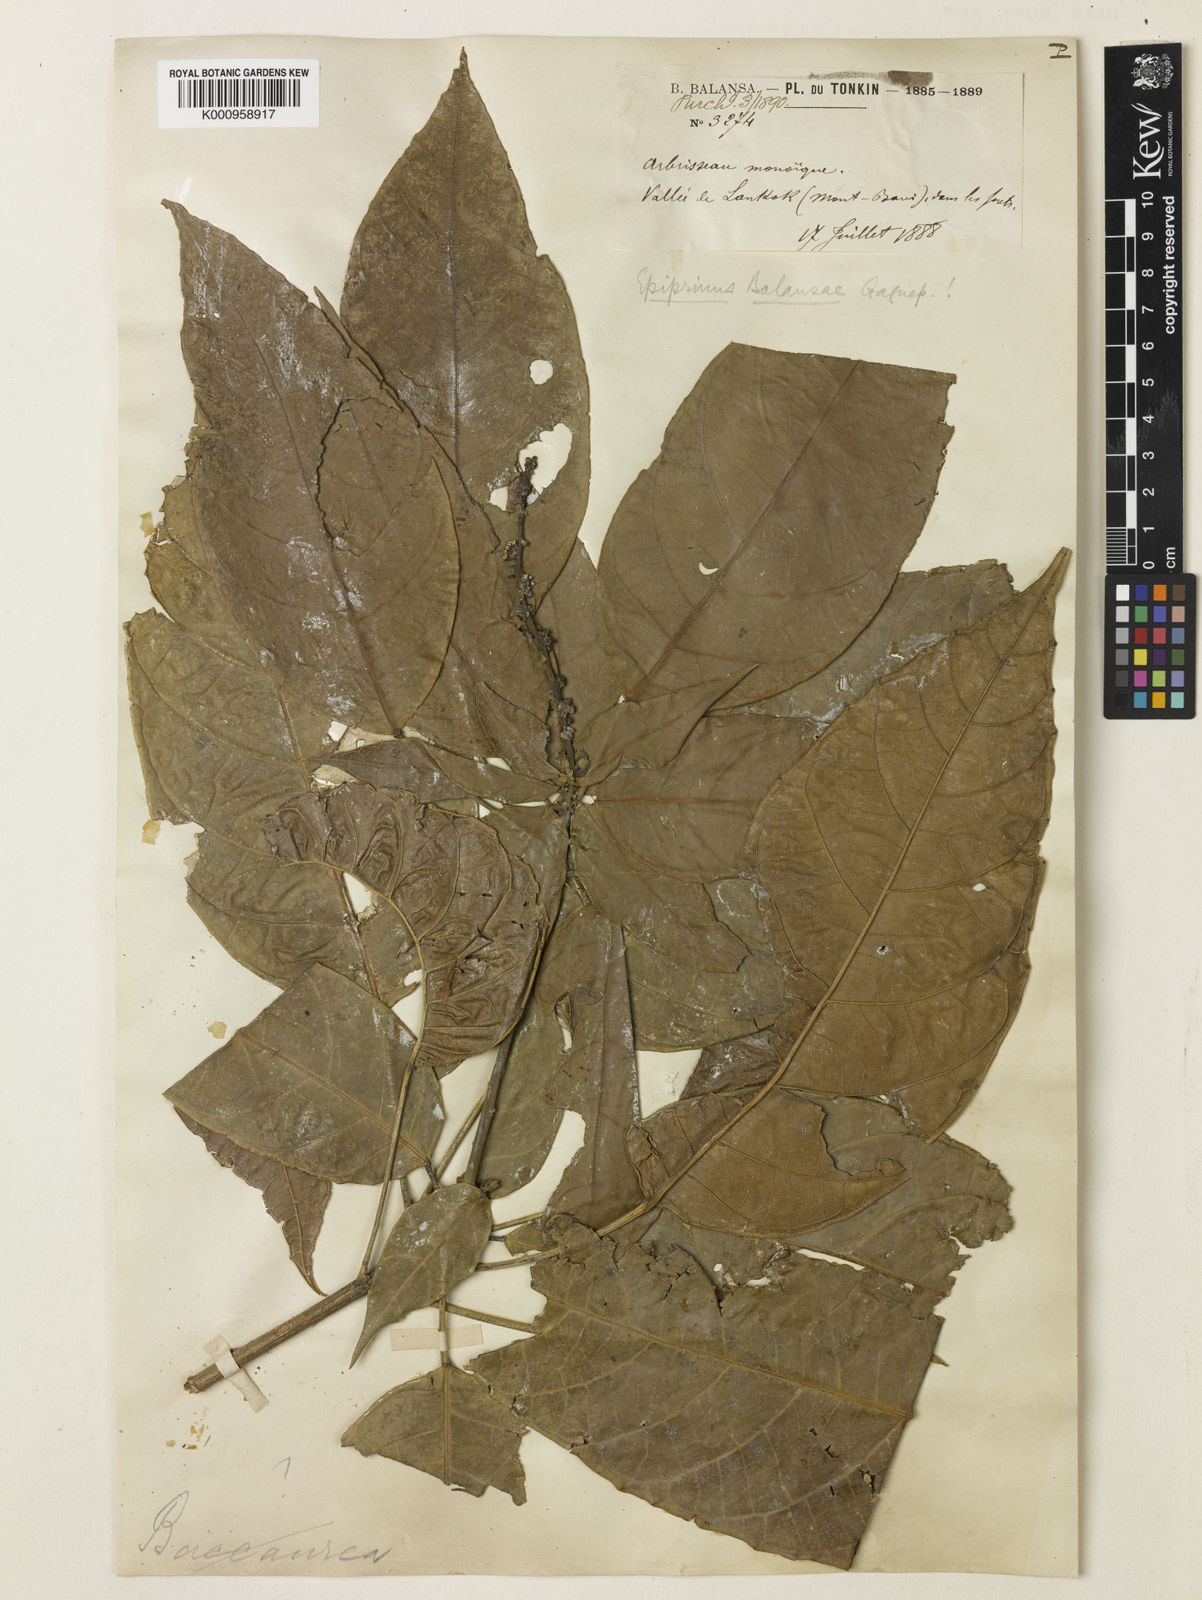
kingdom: Plantae
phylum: Tracheophyta
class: Magnoliopsida
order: Malpighiales
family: Euphorbiaceae
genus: Epiprinus
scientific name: Epiprinus balansae
